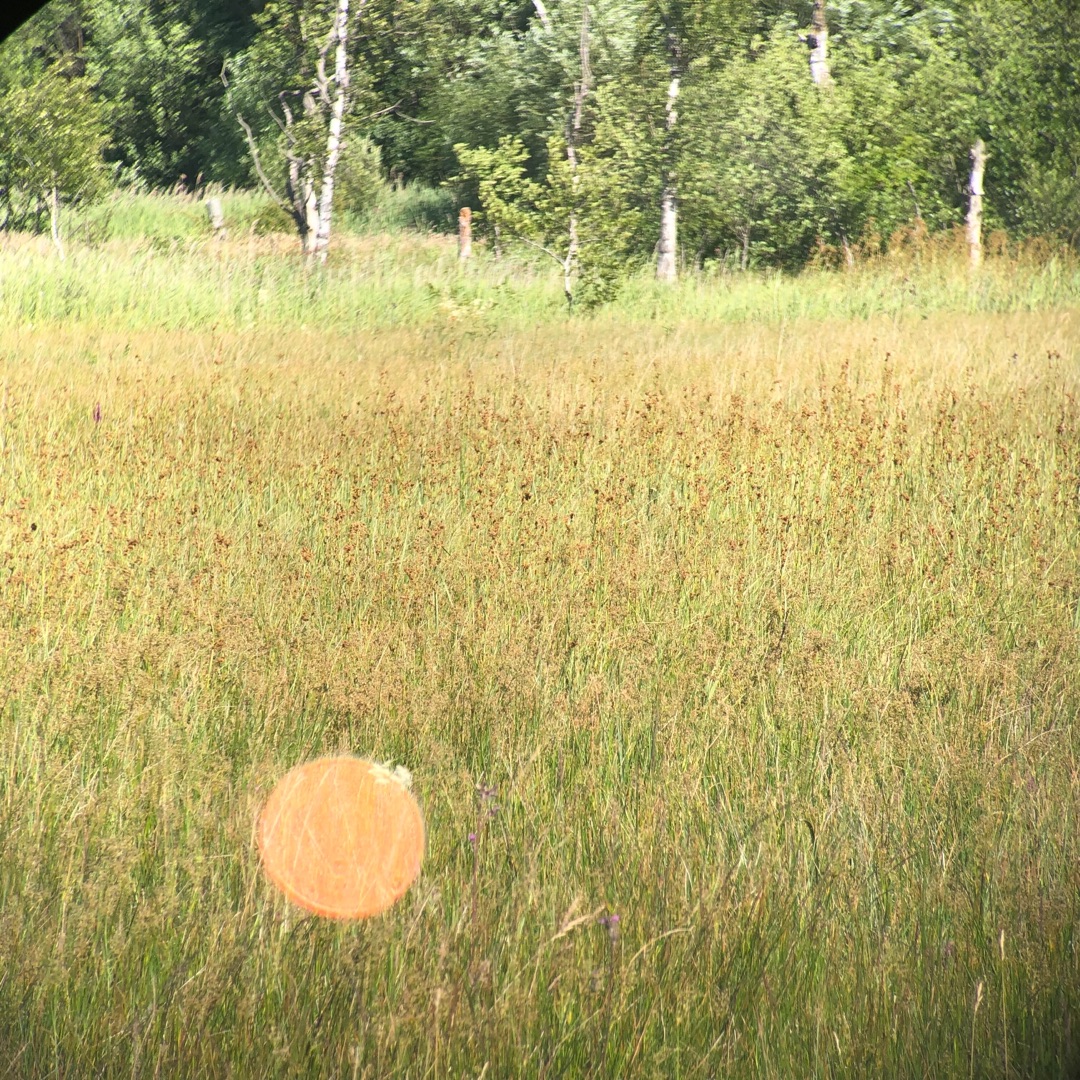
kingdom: Plantae
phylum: Tracheophyta
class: Liliopsida
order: Poales
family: Cyperaceae
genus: Cladium
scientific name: Cladium mariscus
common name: Hvas avneknippe
